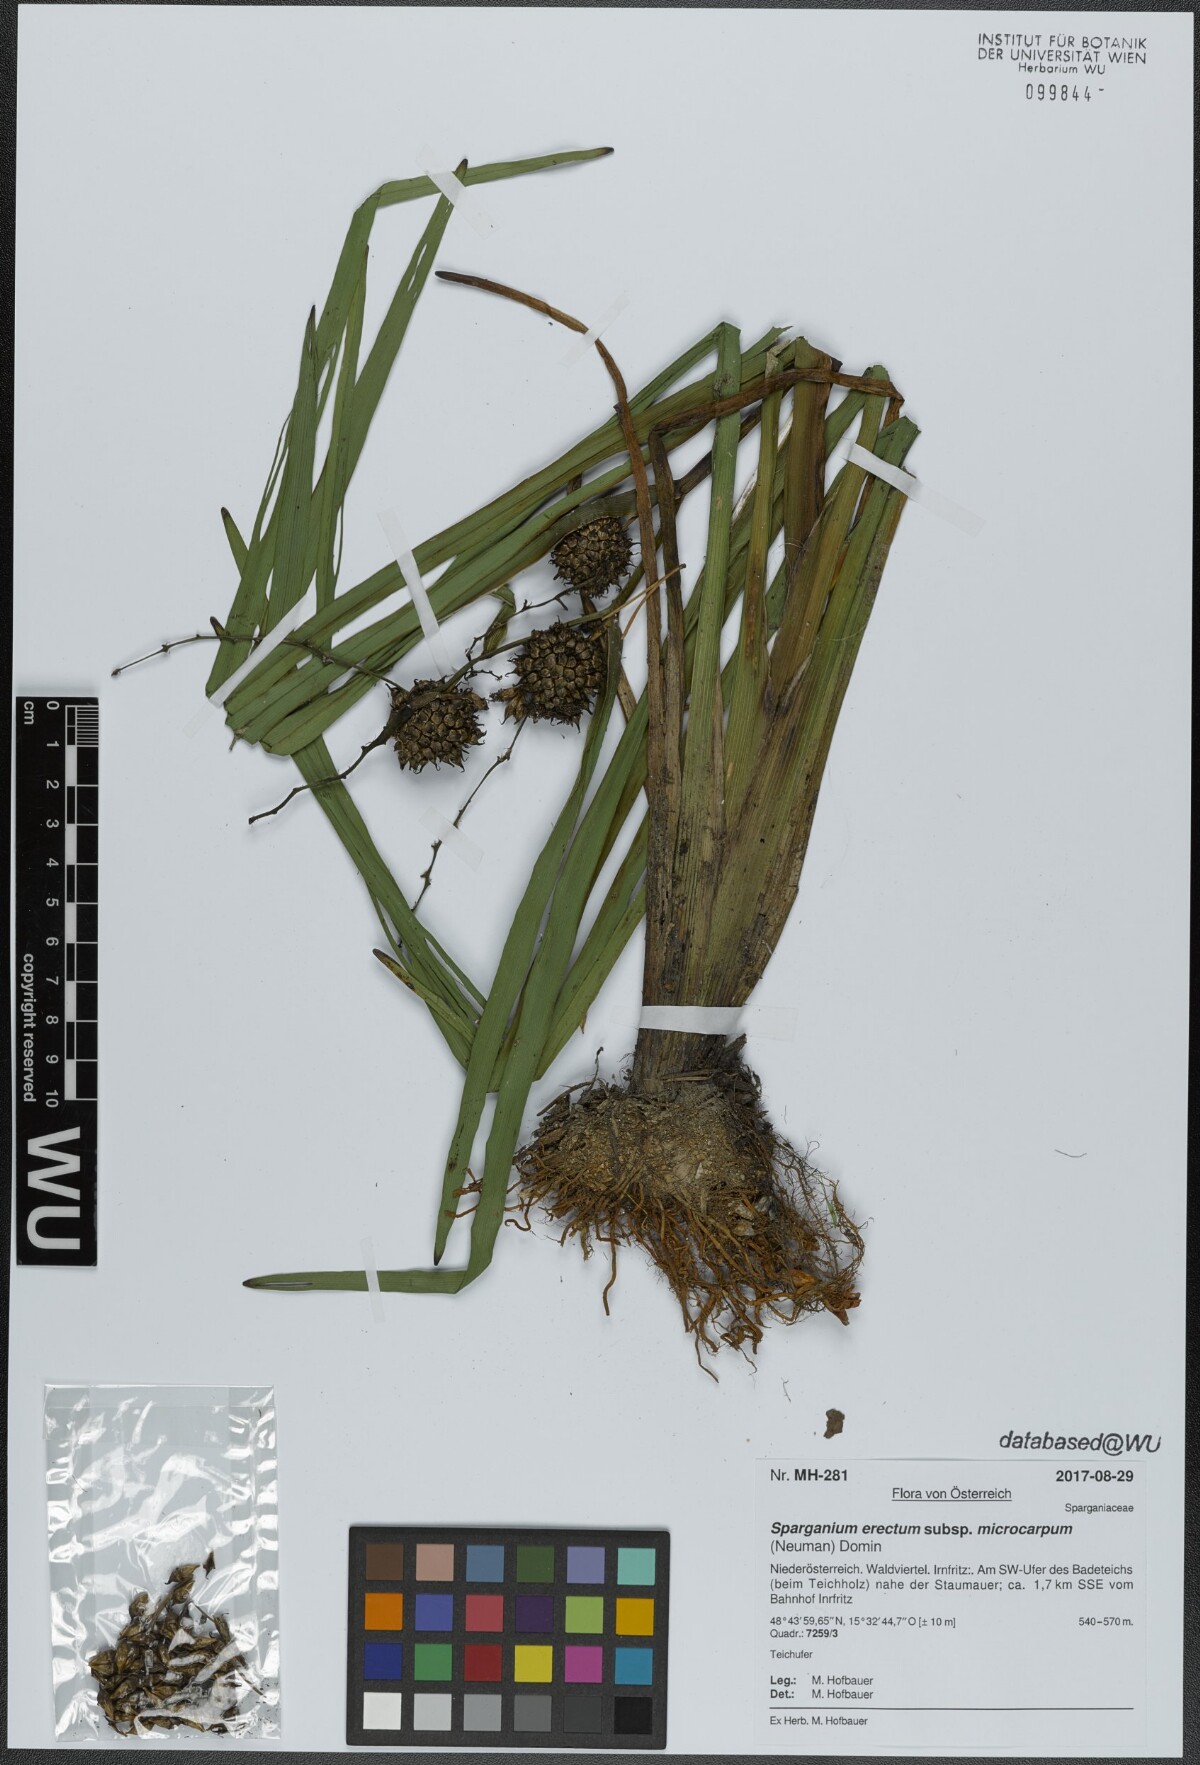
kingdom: Plantae
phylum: Tracheophyta
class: Liliopsida
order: Poales
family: Typhaceae
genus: Sparganium
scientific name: Sparganium erectum
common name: Branched bur-reed
